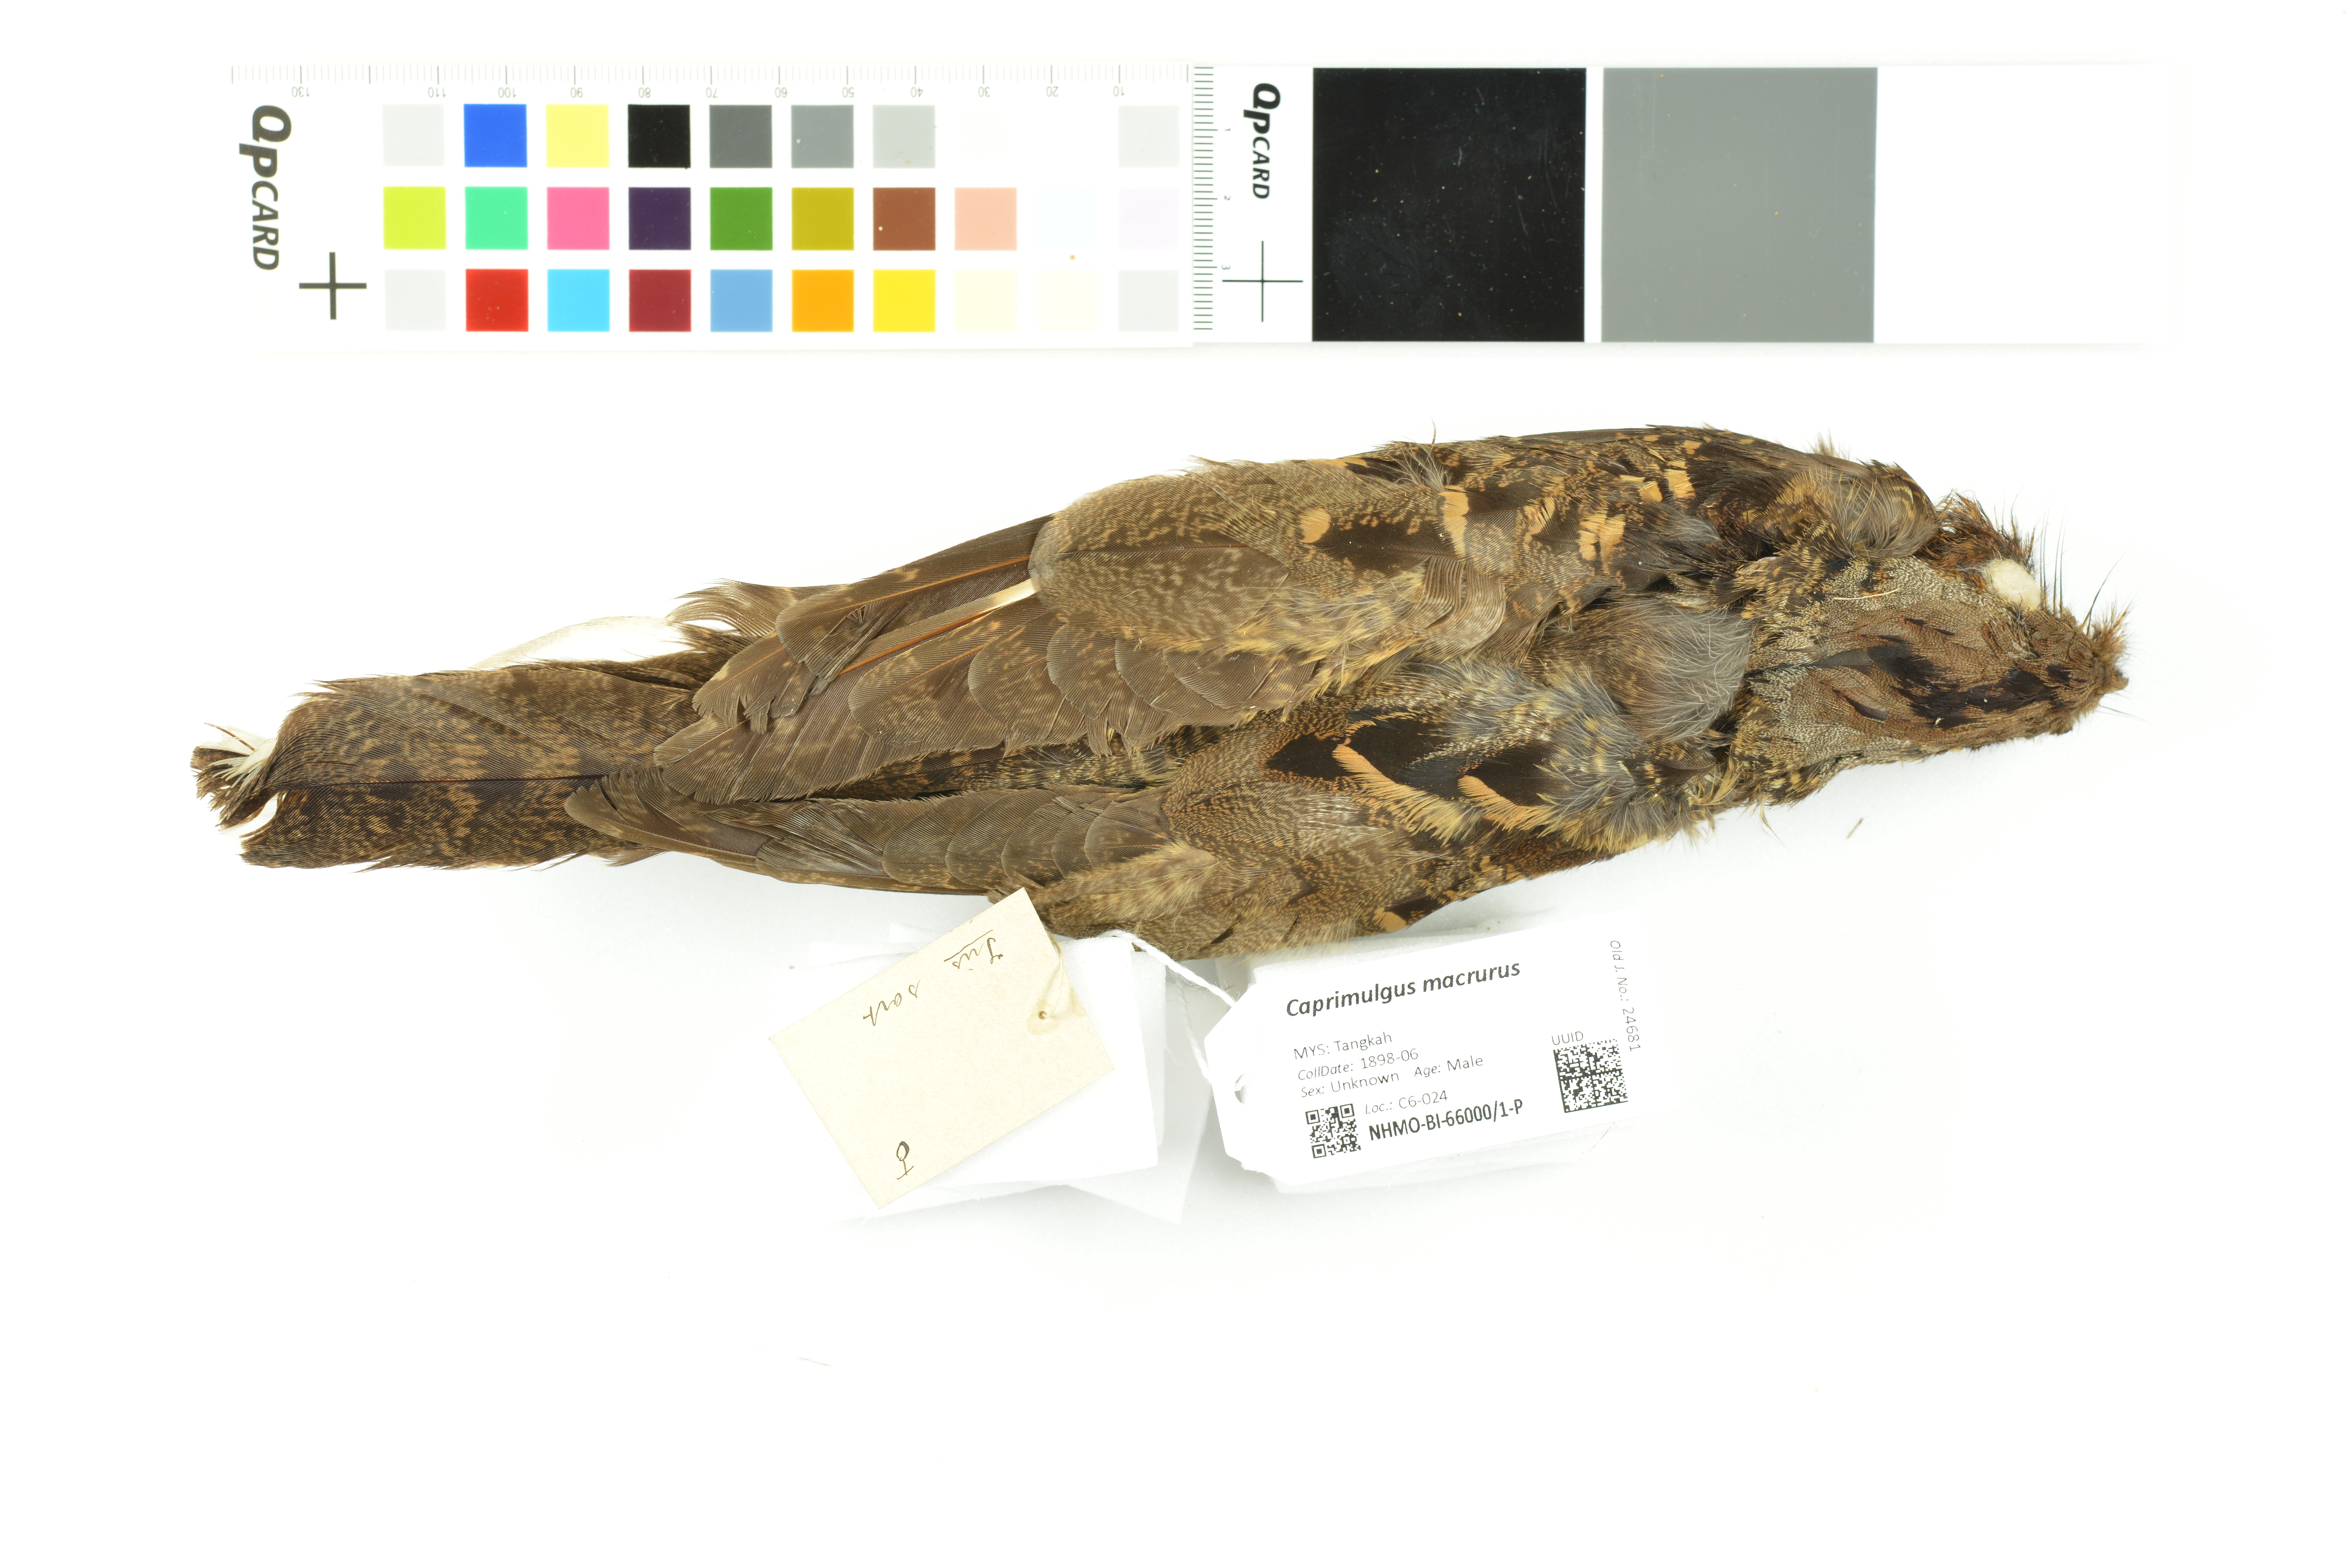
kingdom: Animalia
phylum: Chordata
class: Aves
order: Caprimulgiformes
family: Caprimulgidae
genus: Caprimulgus
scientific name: Caprimulgus macrurus
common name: Large-tailed nightjar
